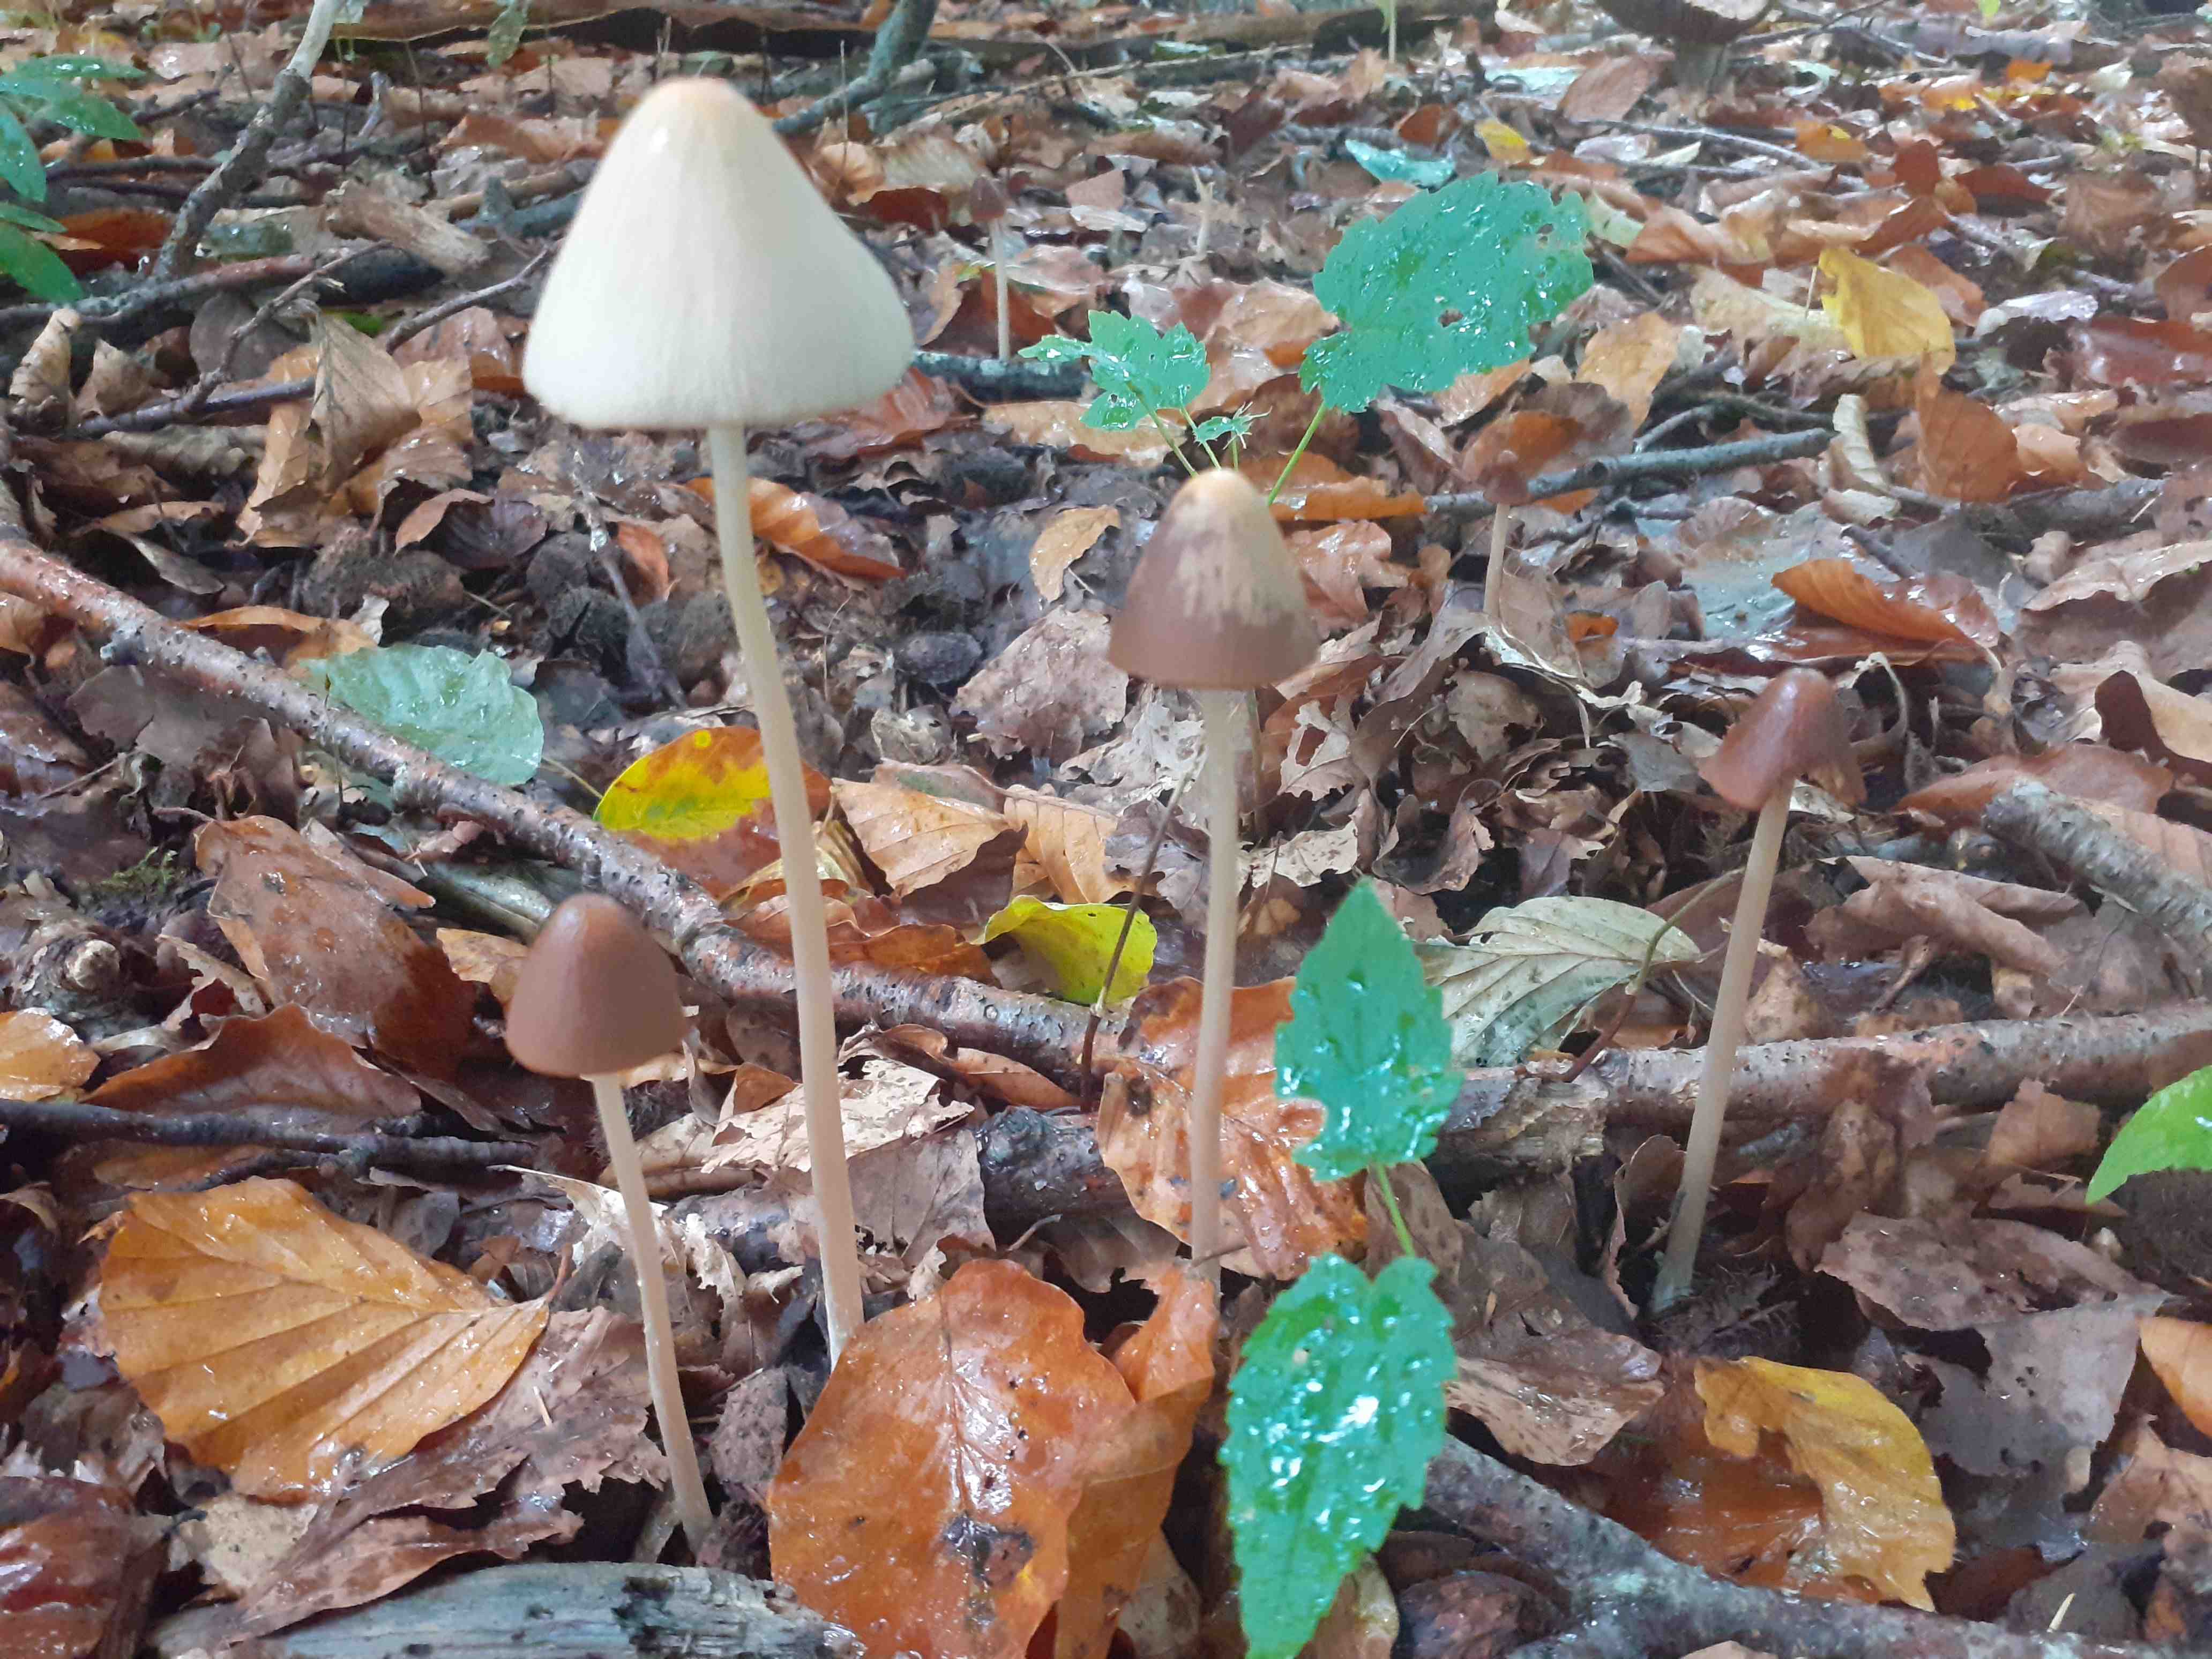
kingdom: Fungi
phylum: Basidiomycota
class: Agaricomycetes
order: Agaricales
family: Psathyrellaceae
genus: Parasola
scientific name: Parasola conopilea
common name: kegle-hjulhat
